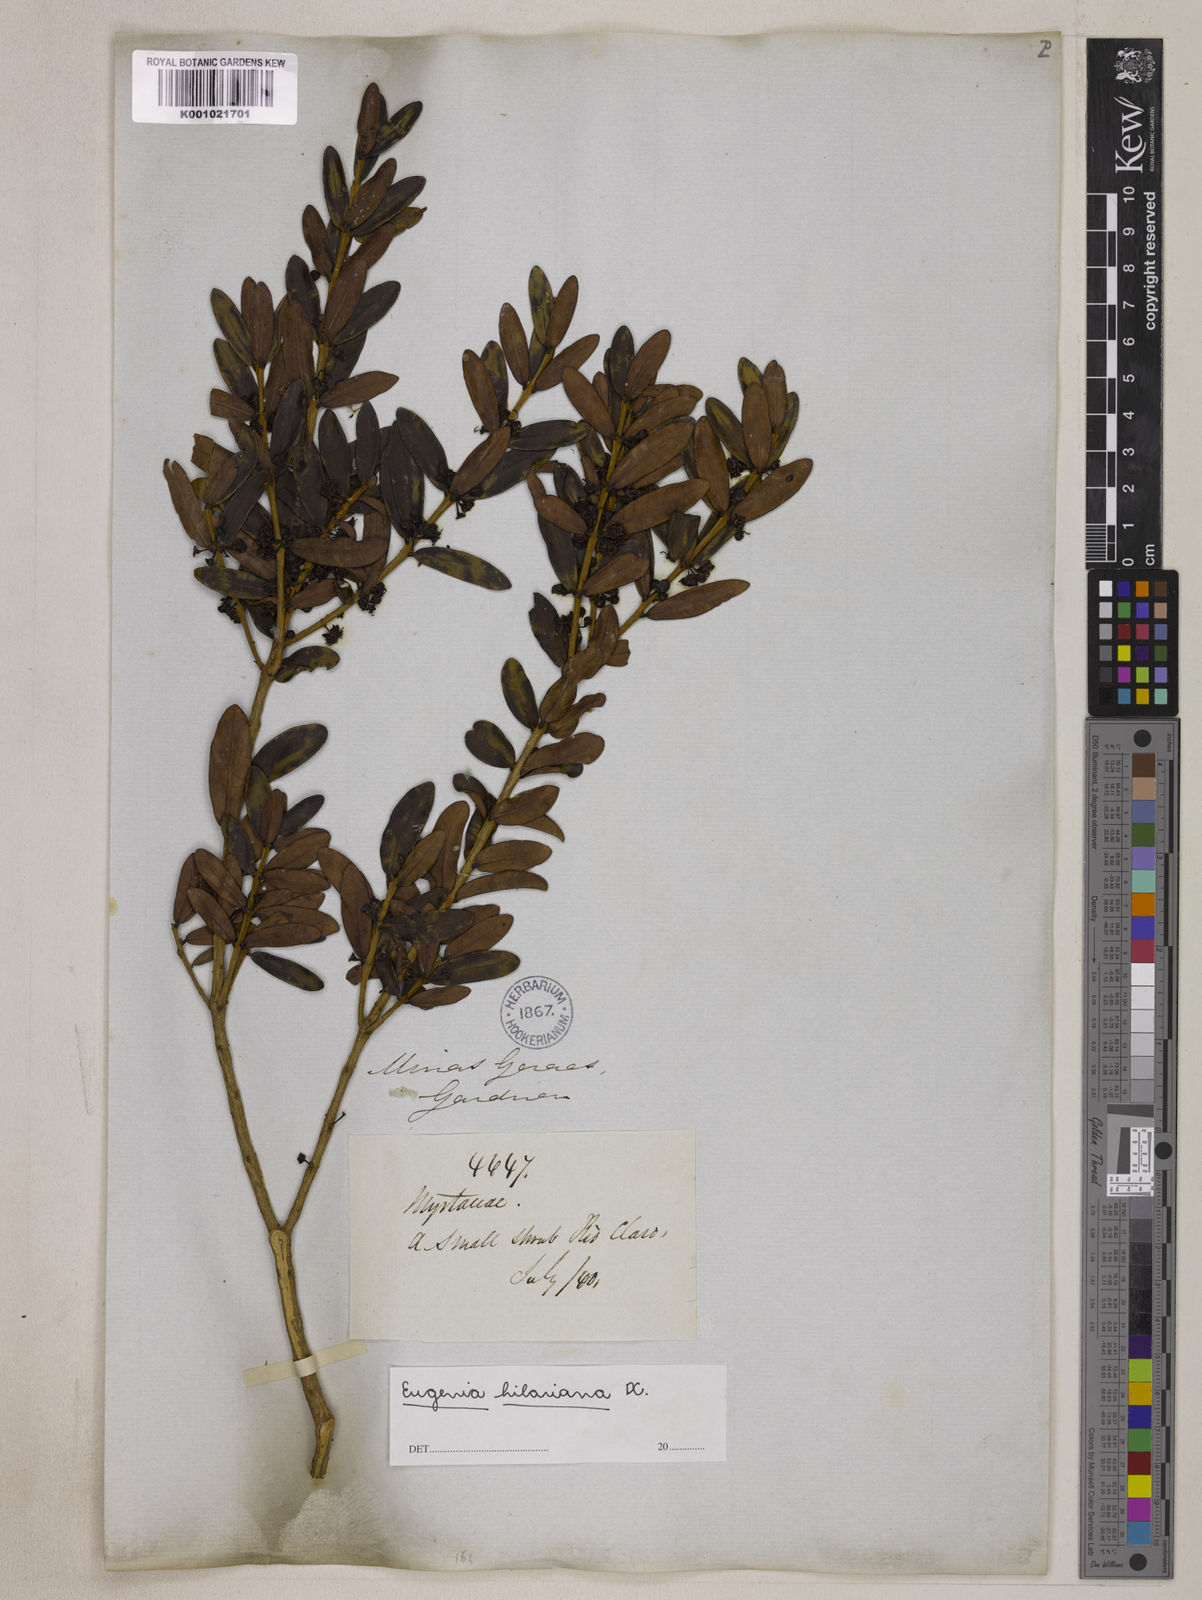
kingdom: Plantae
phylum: Tracheophyta
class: Magnoliopsida
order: Myrtales
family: Myrtaceae
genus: Eugenia
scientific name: Eugenia hilariana
